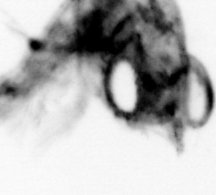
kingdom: Animalia
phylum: Arthropoda
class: Malacostraca
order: Decapoda
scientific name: Decapoda
